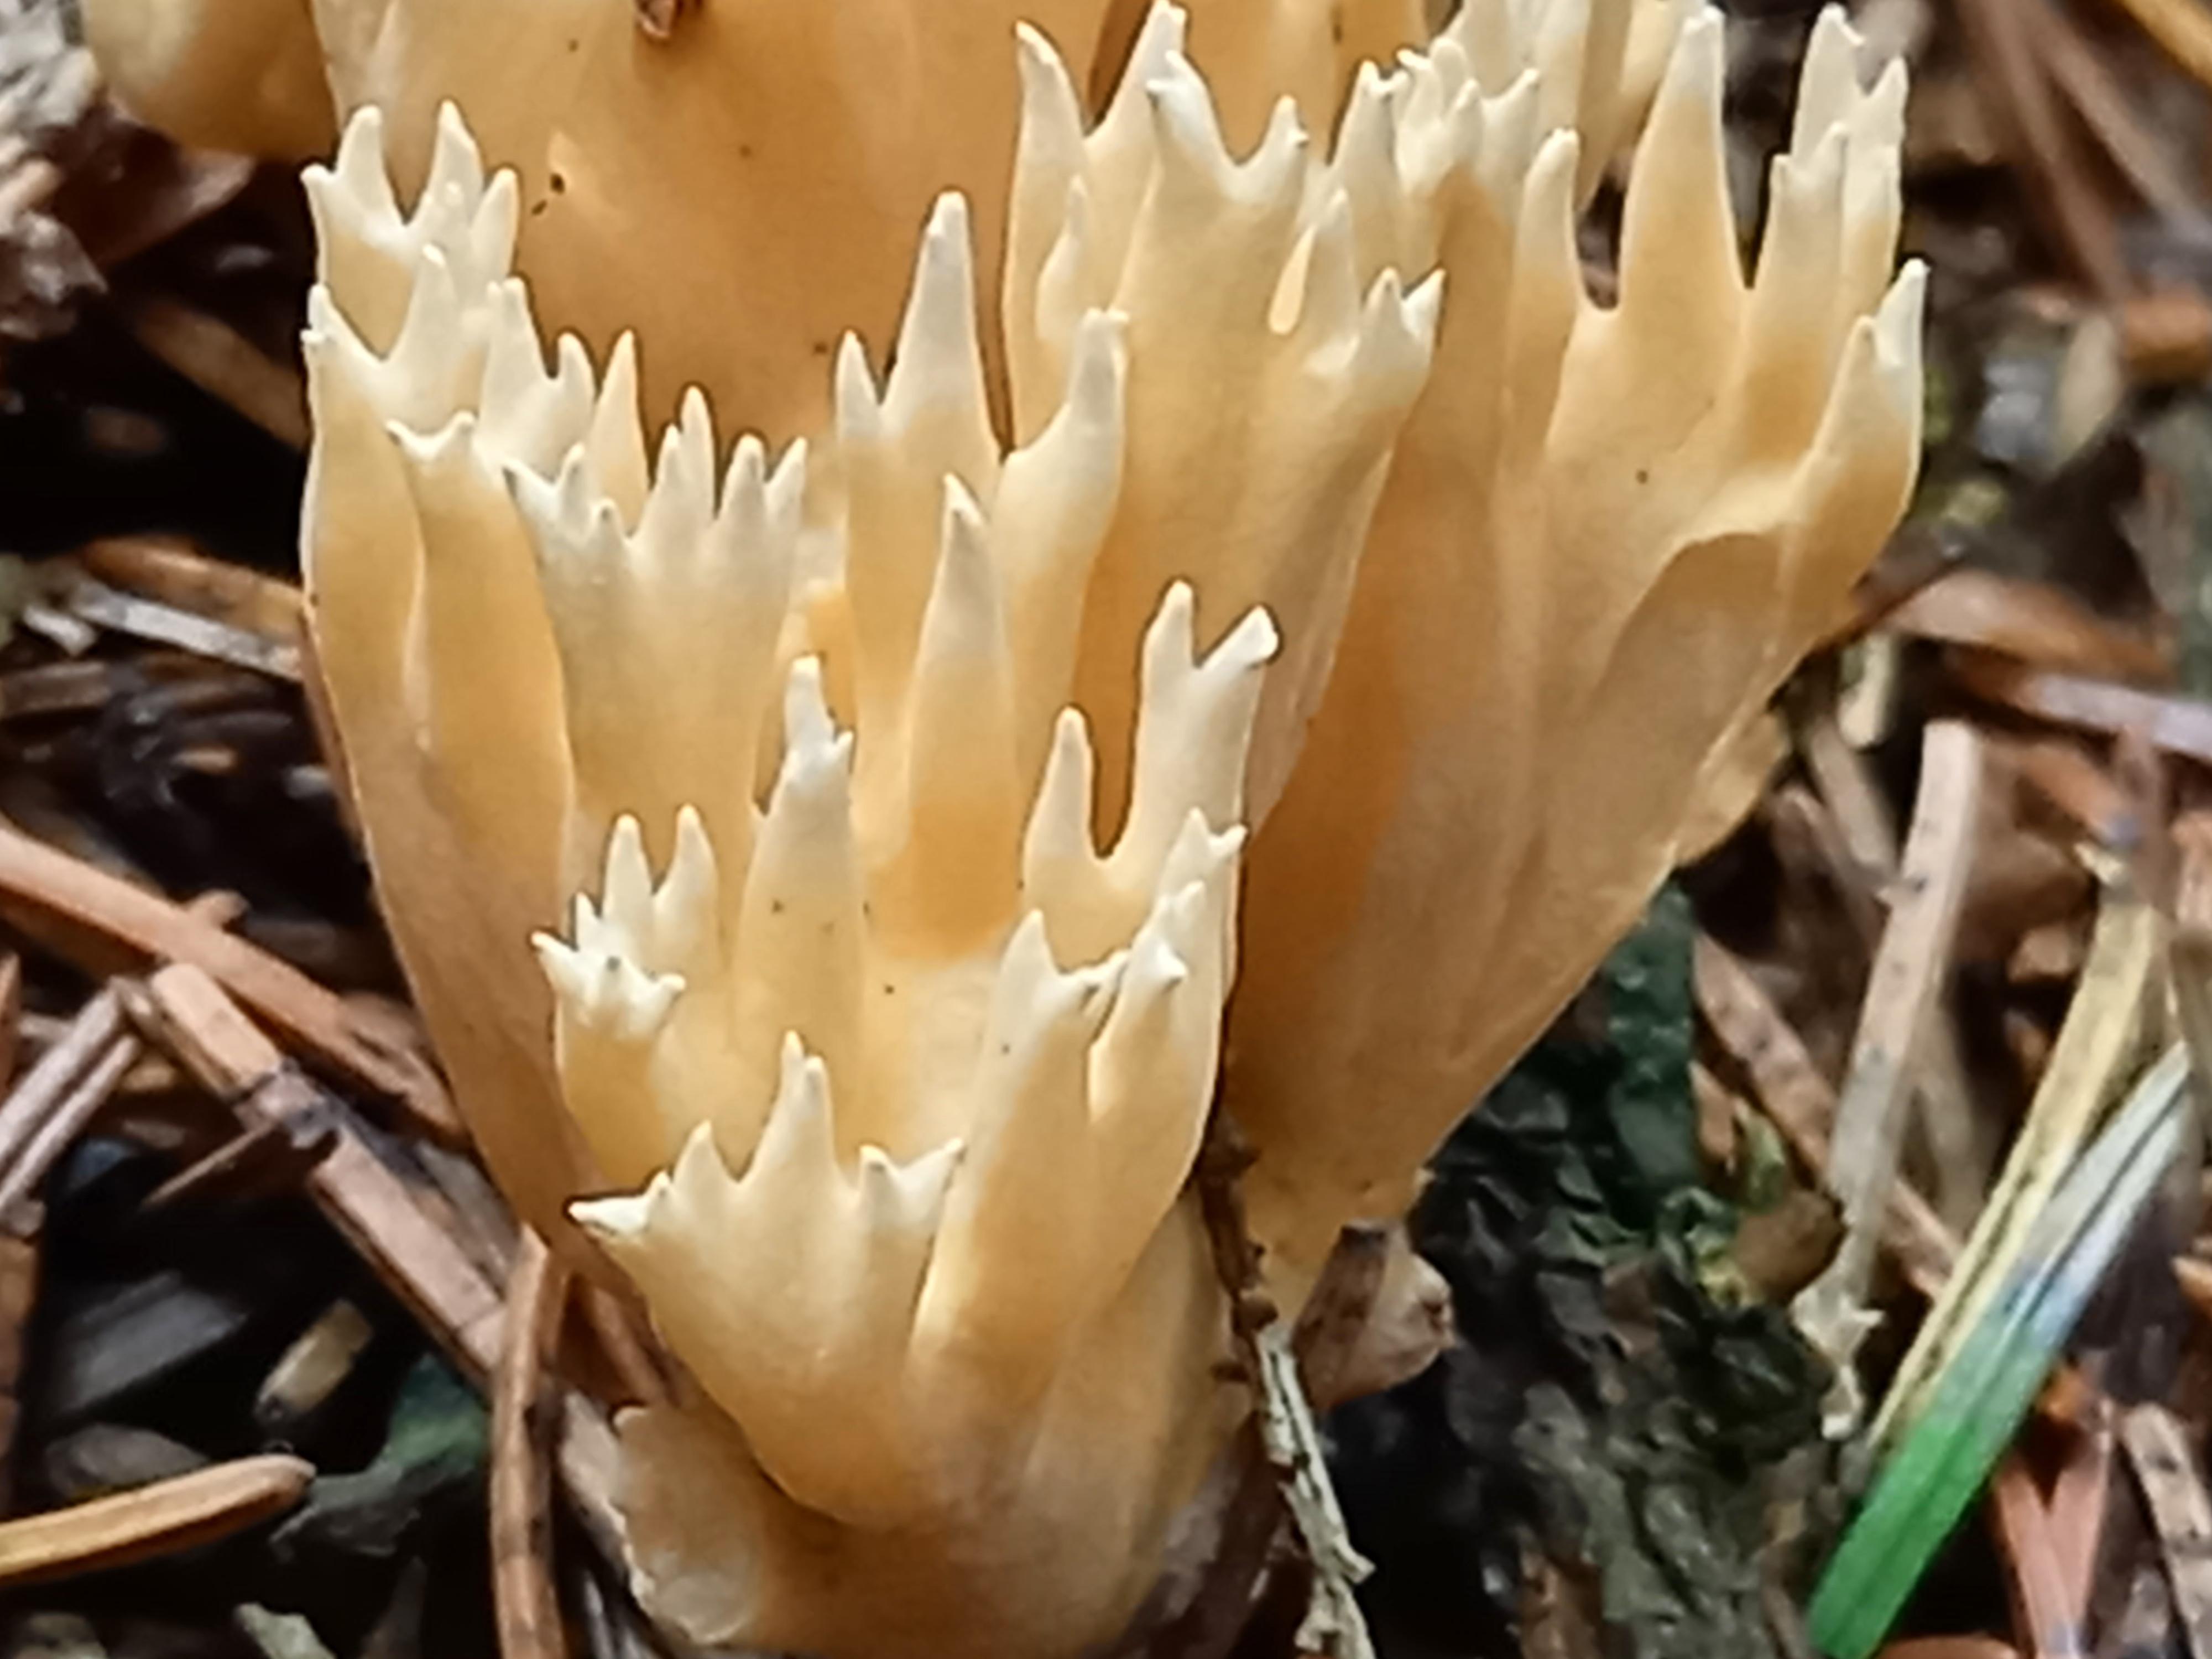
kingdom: Fungi
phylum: Basidiomycota
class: Agaricomycetes
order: Gomphales
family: Gomphaceae
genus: Phaeoclavulina
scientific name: Phaeoclavulina eumorpha
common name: gran-koralsvamp
